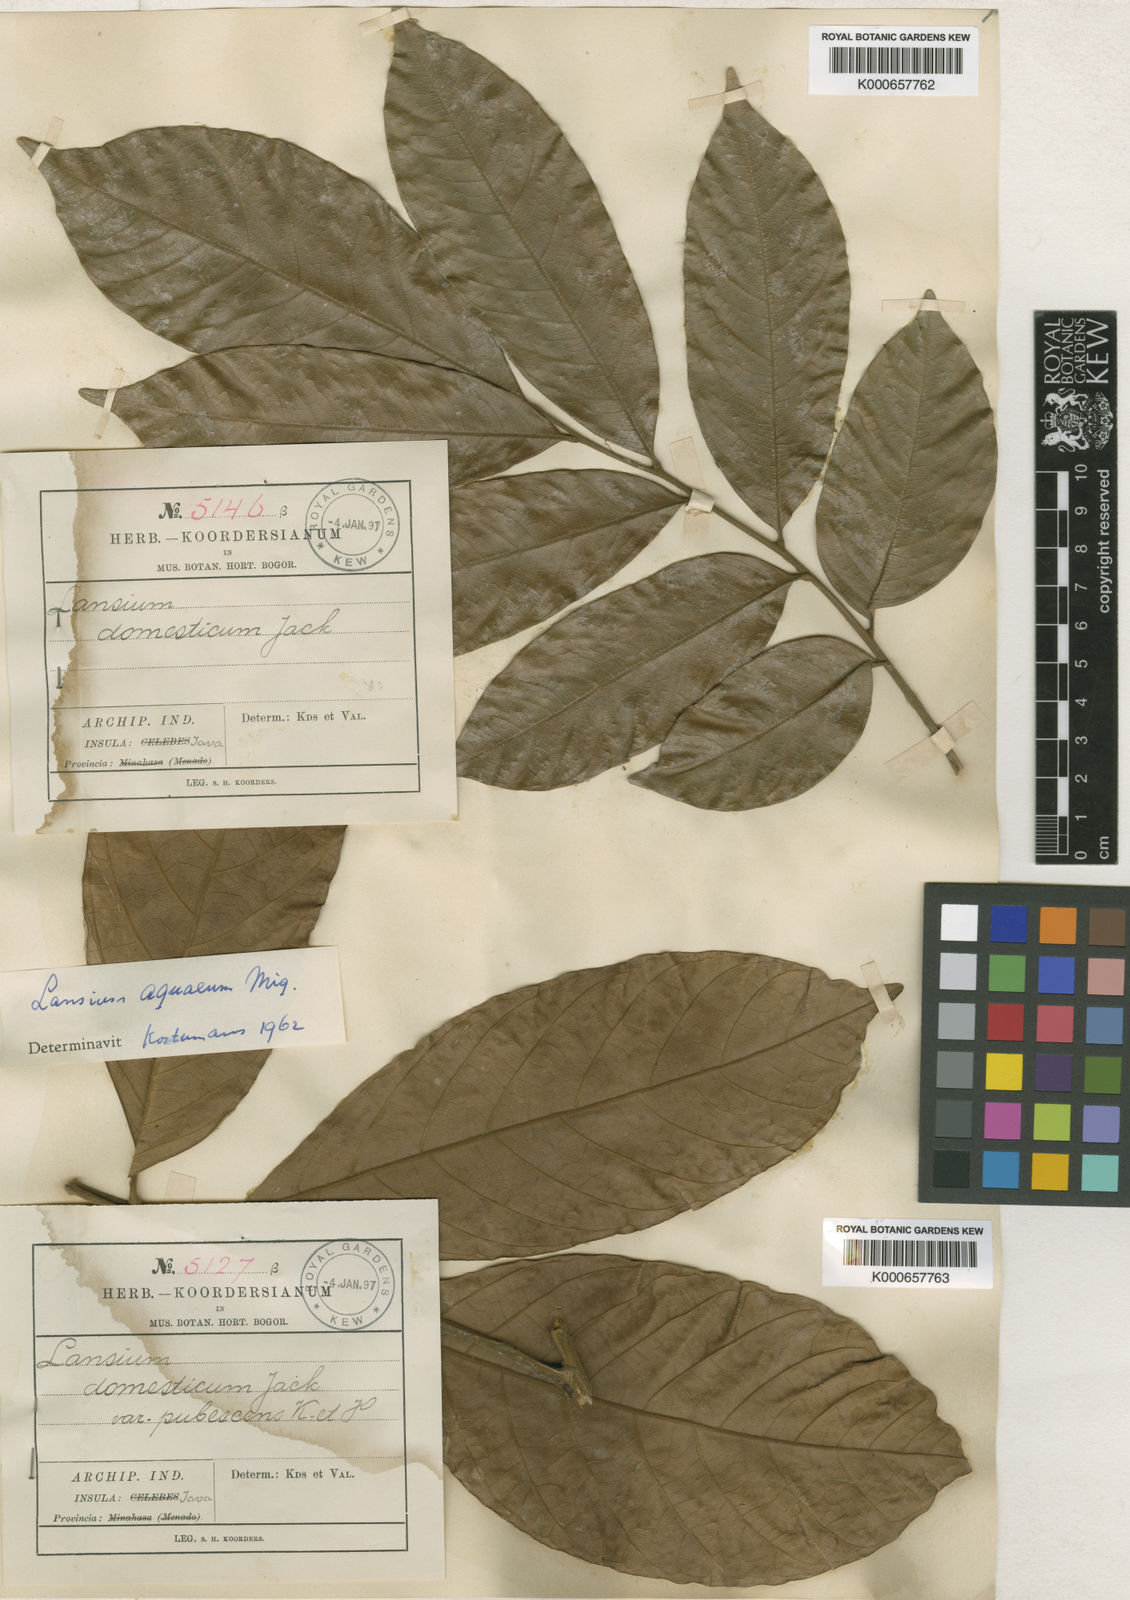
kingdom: Plantae
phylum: Tracheophyta
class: Magnoliopsida
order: Sapindales
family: Meliaceae
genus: Lansium
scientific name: Lansium
